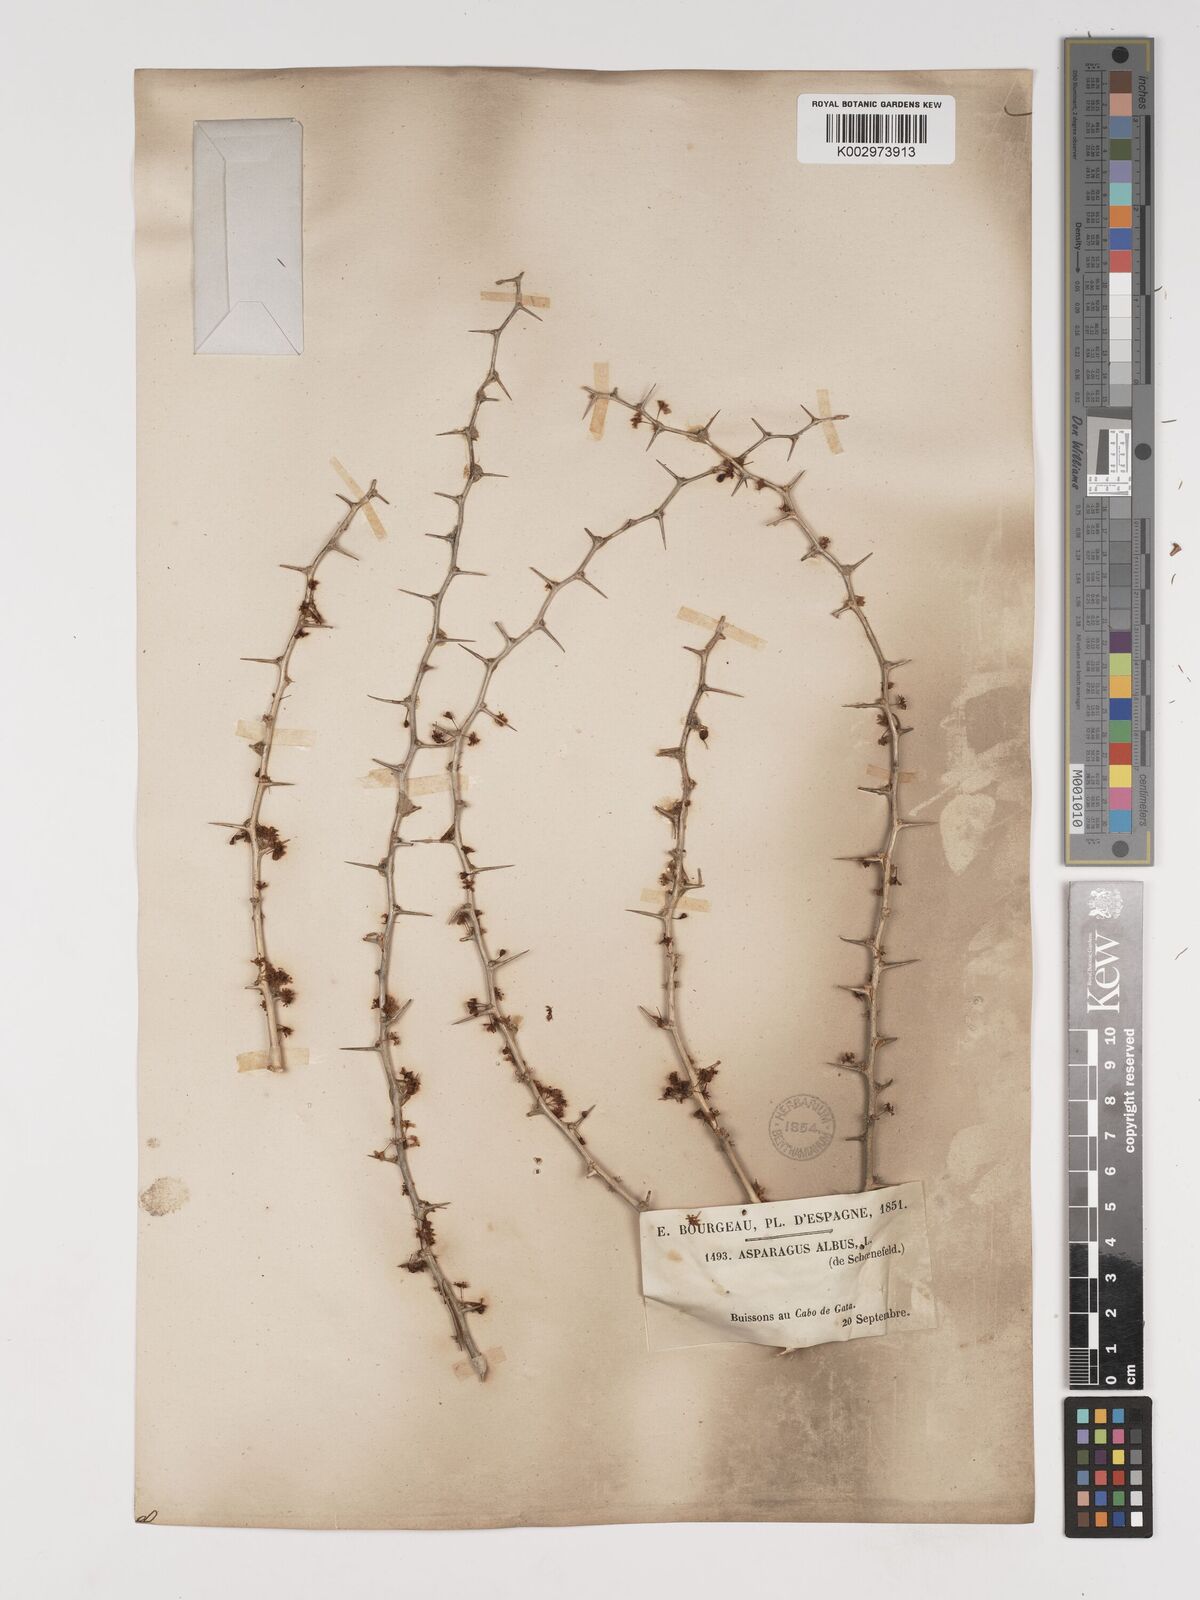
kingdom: Plantae
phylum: Tracheophyta
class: Liliopsida
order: Asparagales
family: Asparagaceae
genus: Asparagus
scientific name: Asparagus albus
